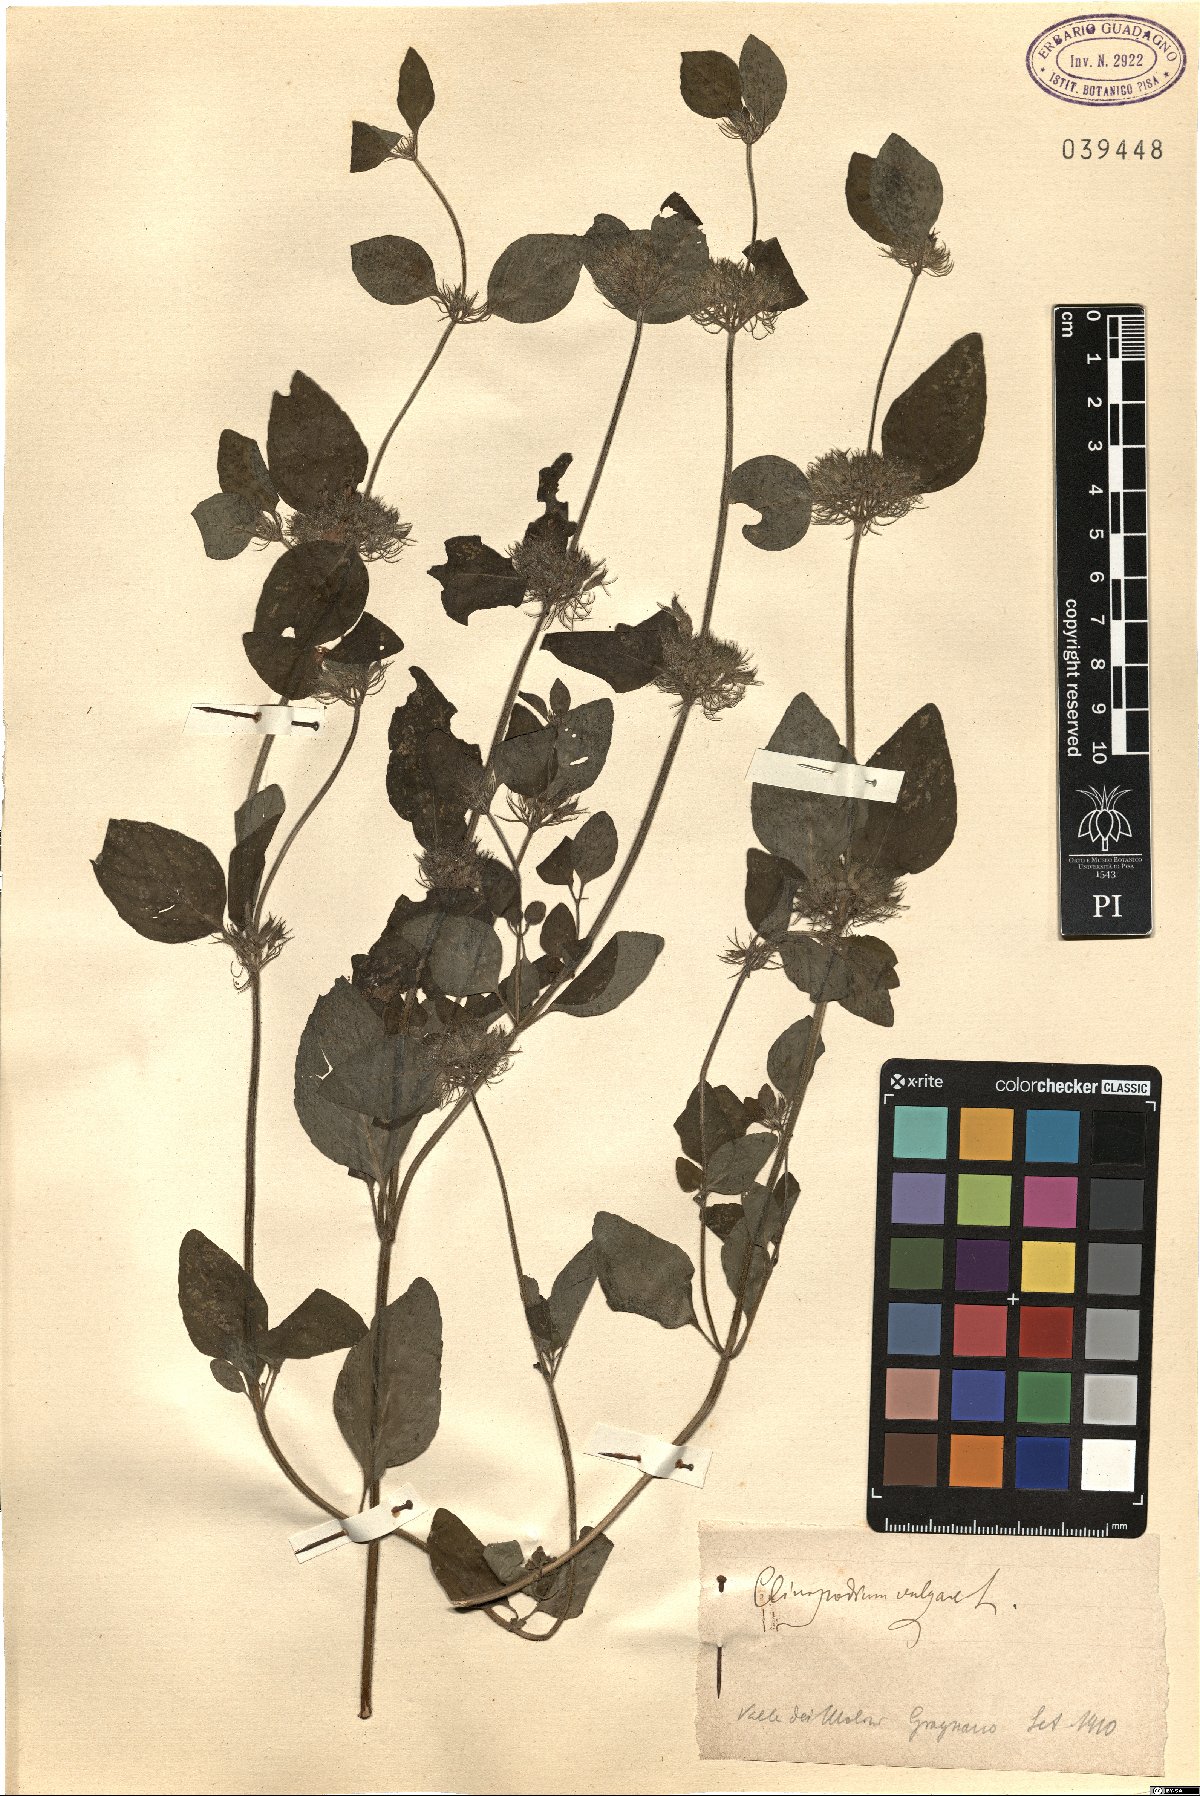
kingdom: Plantae
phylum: Tracheophyta
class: Magnoliopsida
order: Lamiales
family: Lamiaceae
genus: Clinopodium
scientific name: Clinopodium vulgare
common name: Wild basil
